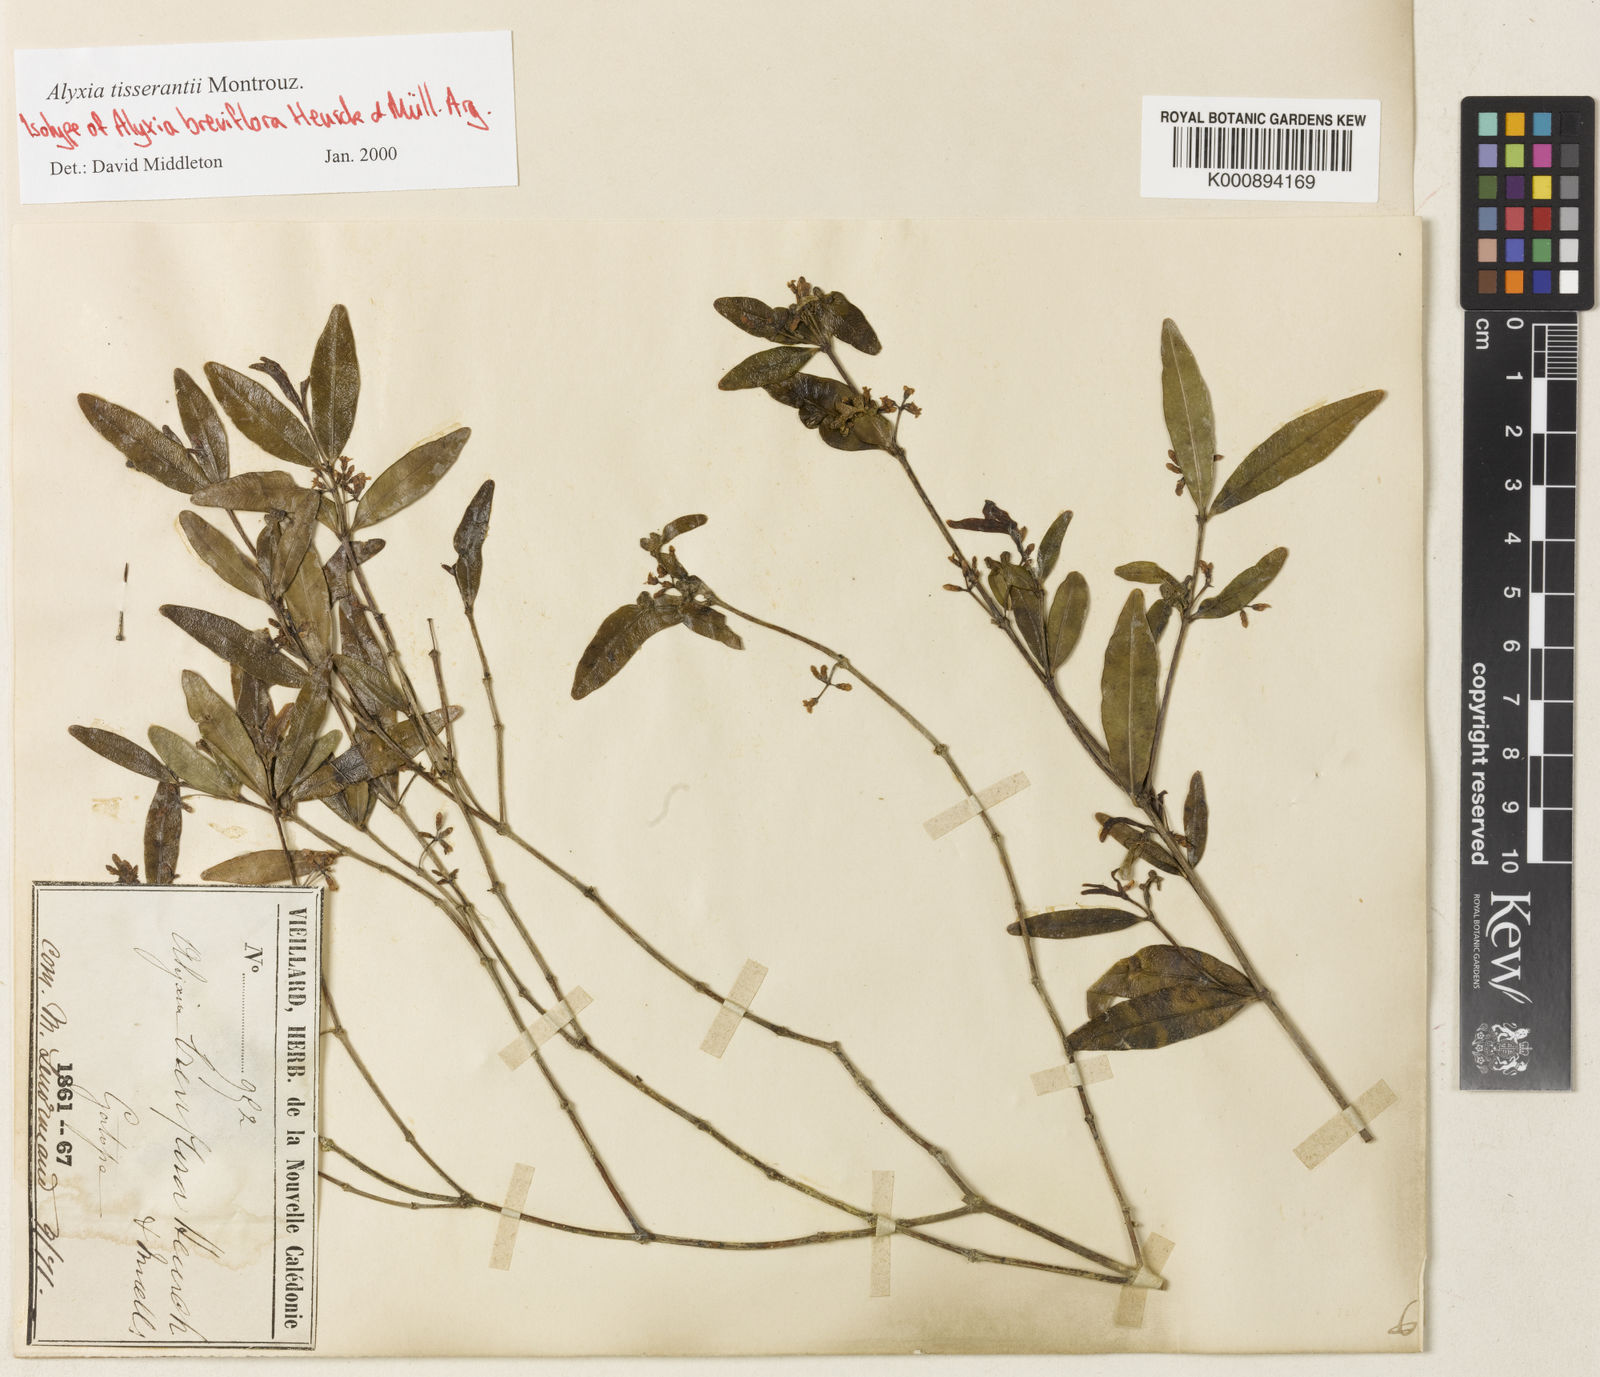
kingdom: Plantae
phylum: Tracheophyta
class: Magnoliopsida
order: Gentianales
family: Apocynaceae
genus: Alyxia
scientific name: Alyxia tisserantii
